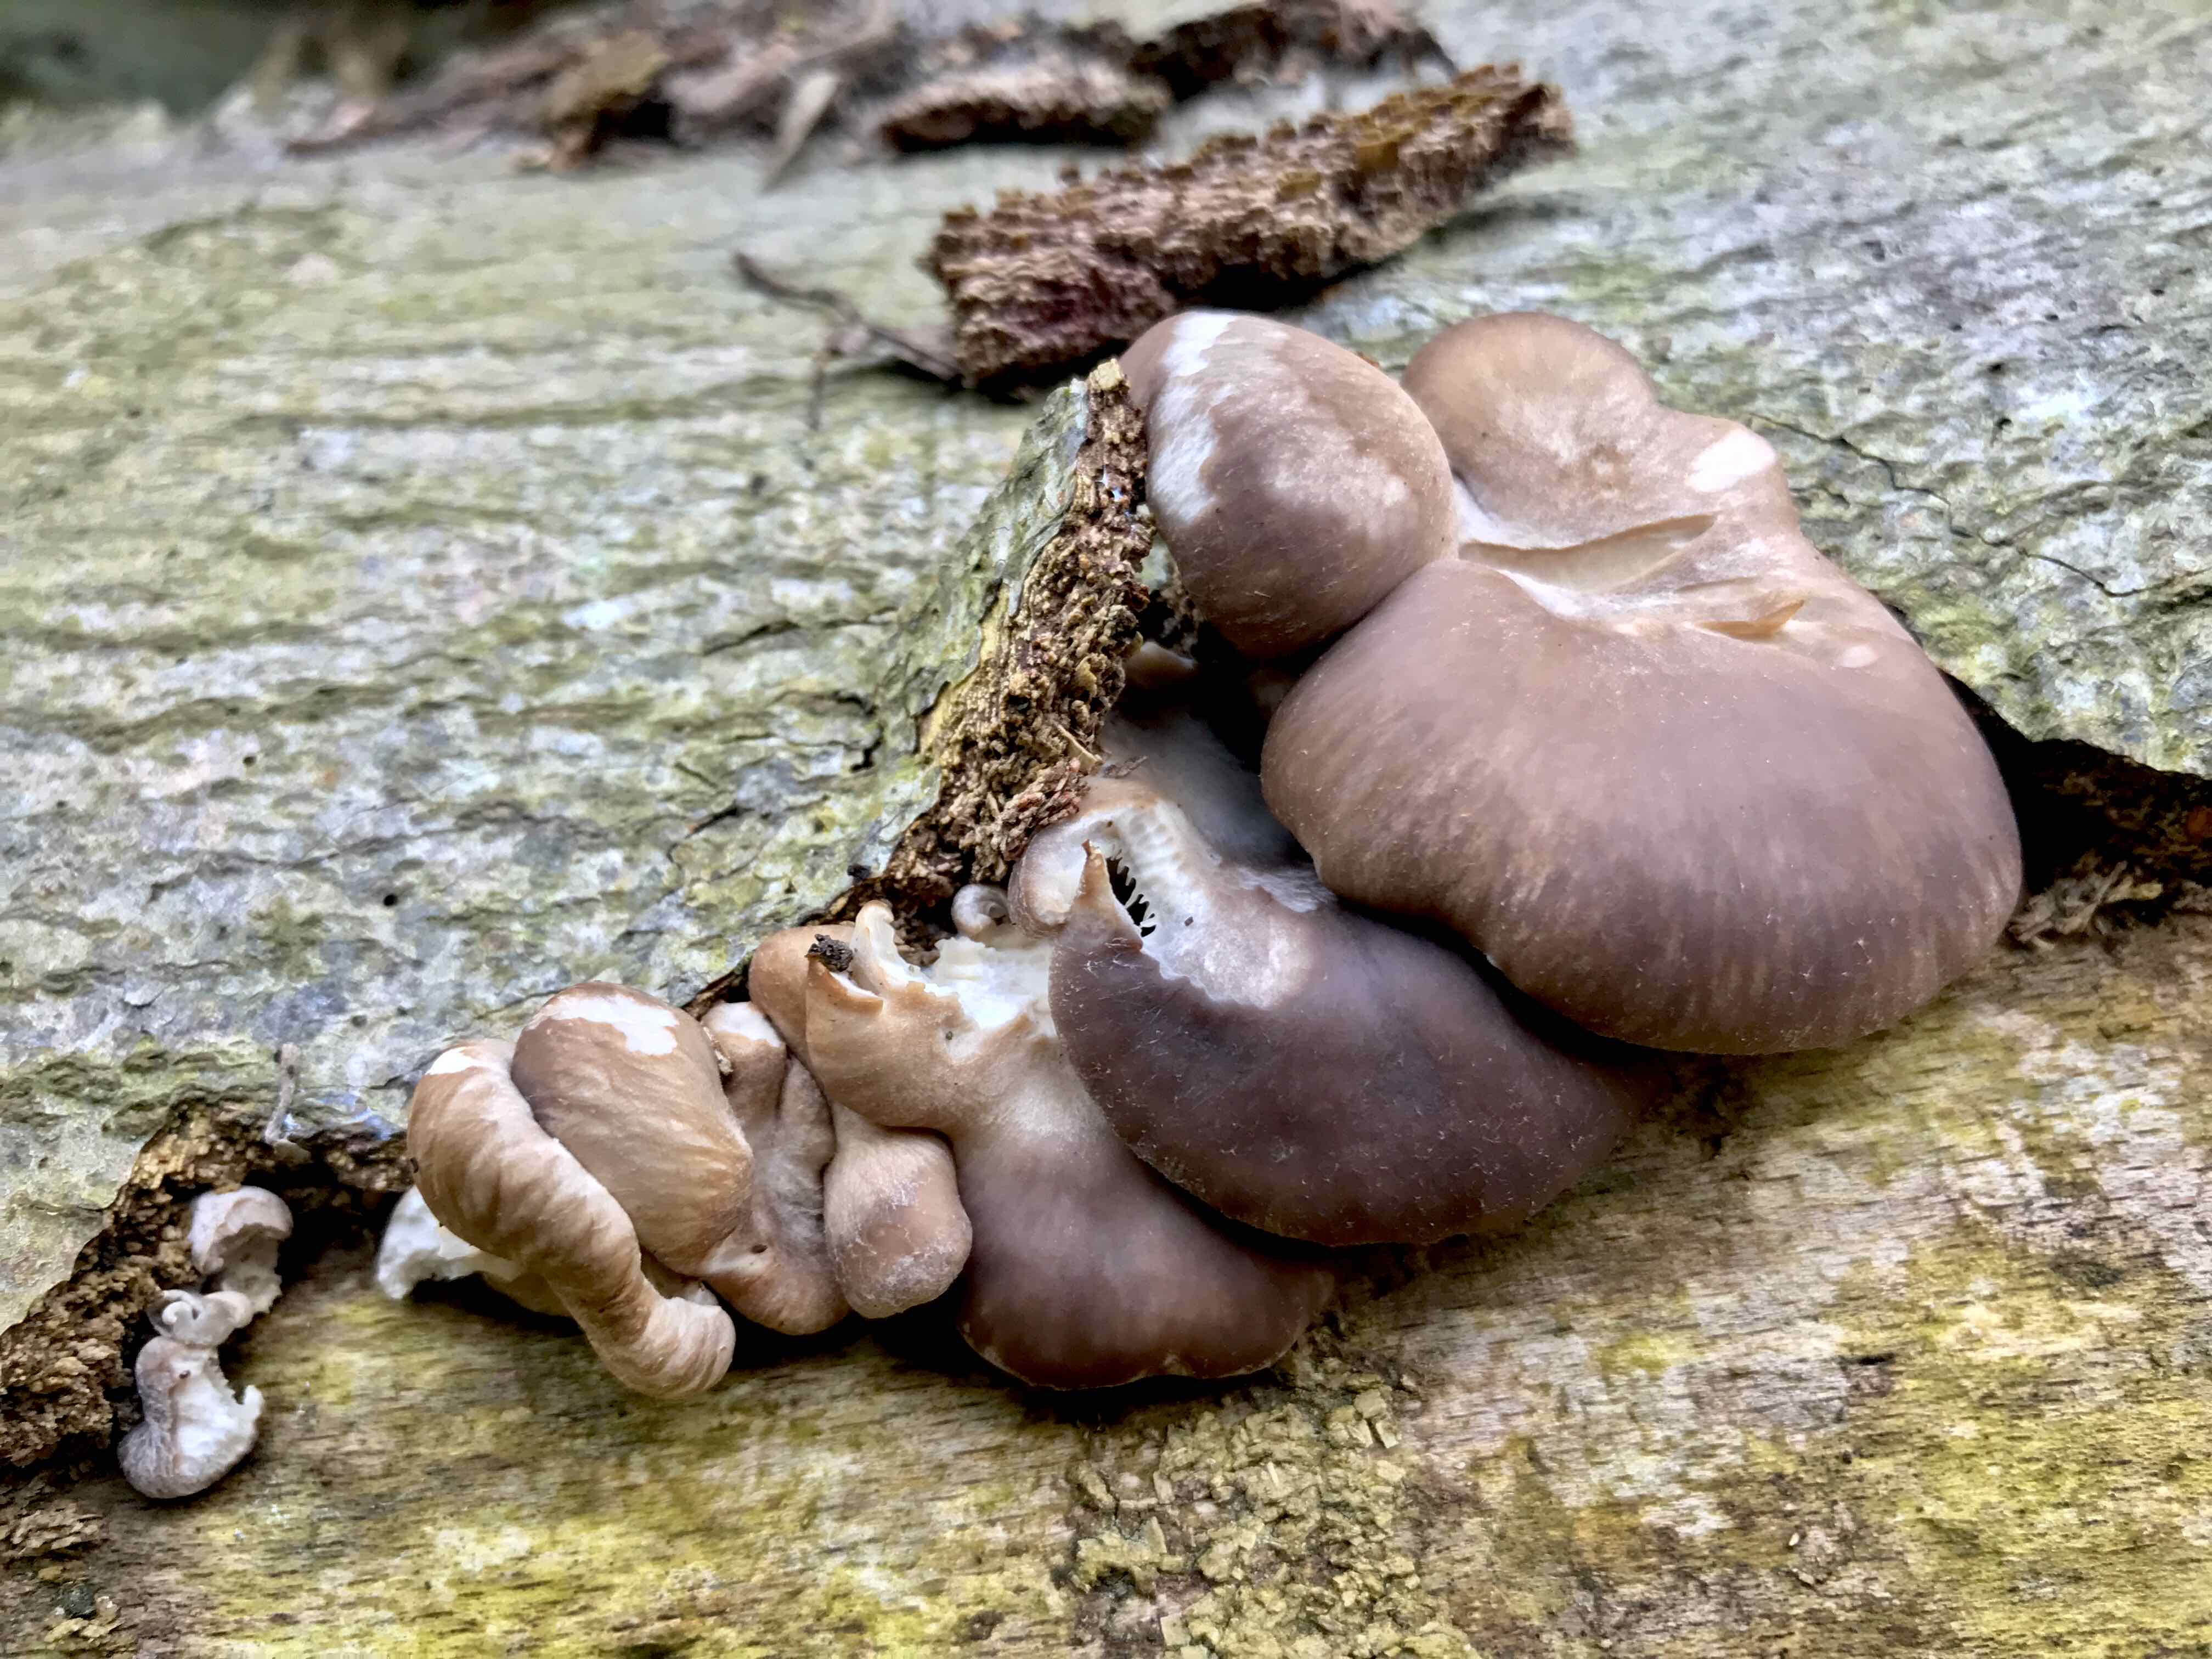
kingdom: Fungi
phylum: Basidiomycota
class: Agaricomycetes
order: Agaricales
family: Pleurotaceae
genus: Pleurotus
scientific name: Pleurotus ostreatus
